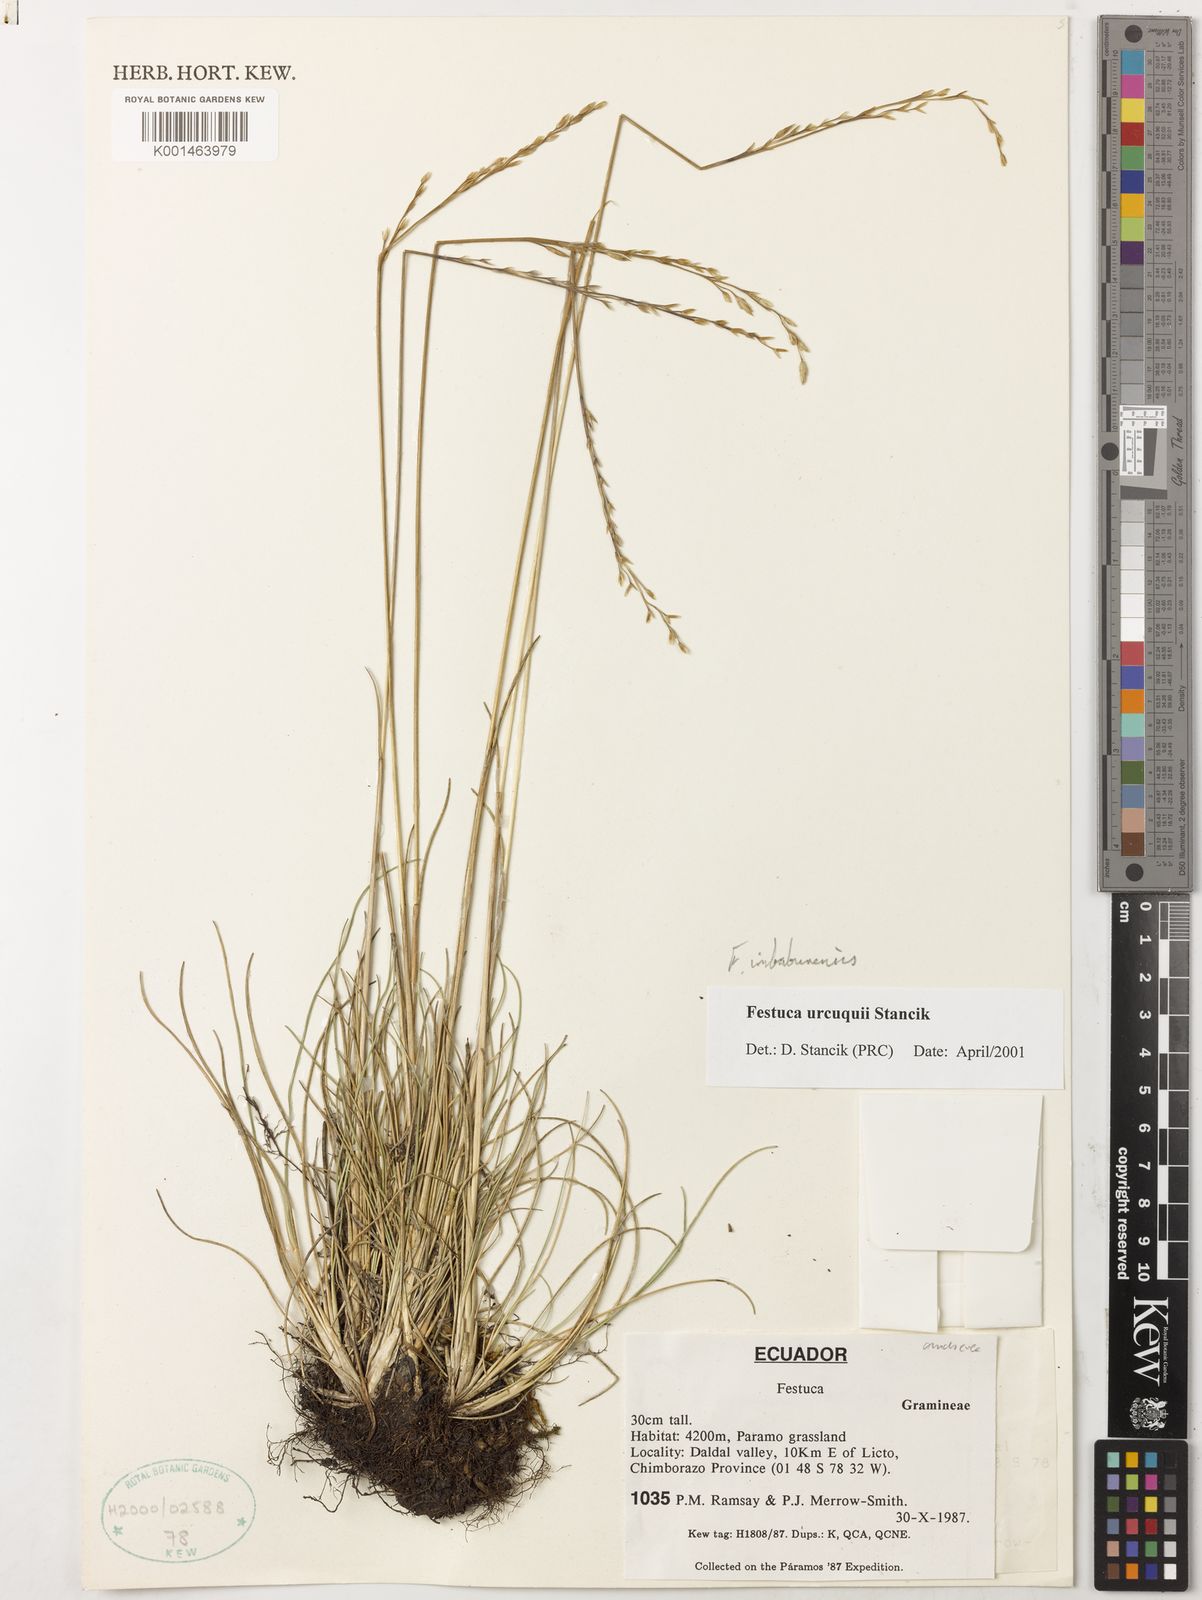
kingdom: Plantae
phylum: Tracheophyta
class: Liliopsida
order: Poales
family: Poaceae
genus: Festuca
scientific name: Festuca
